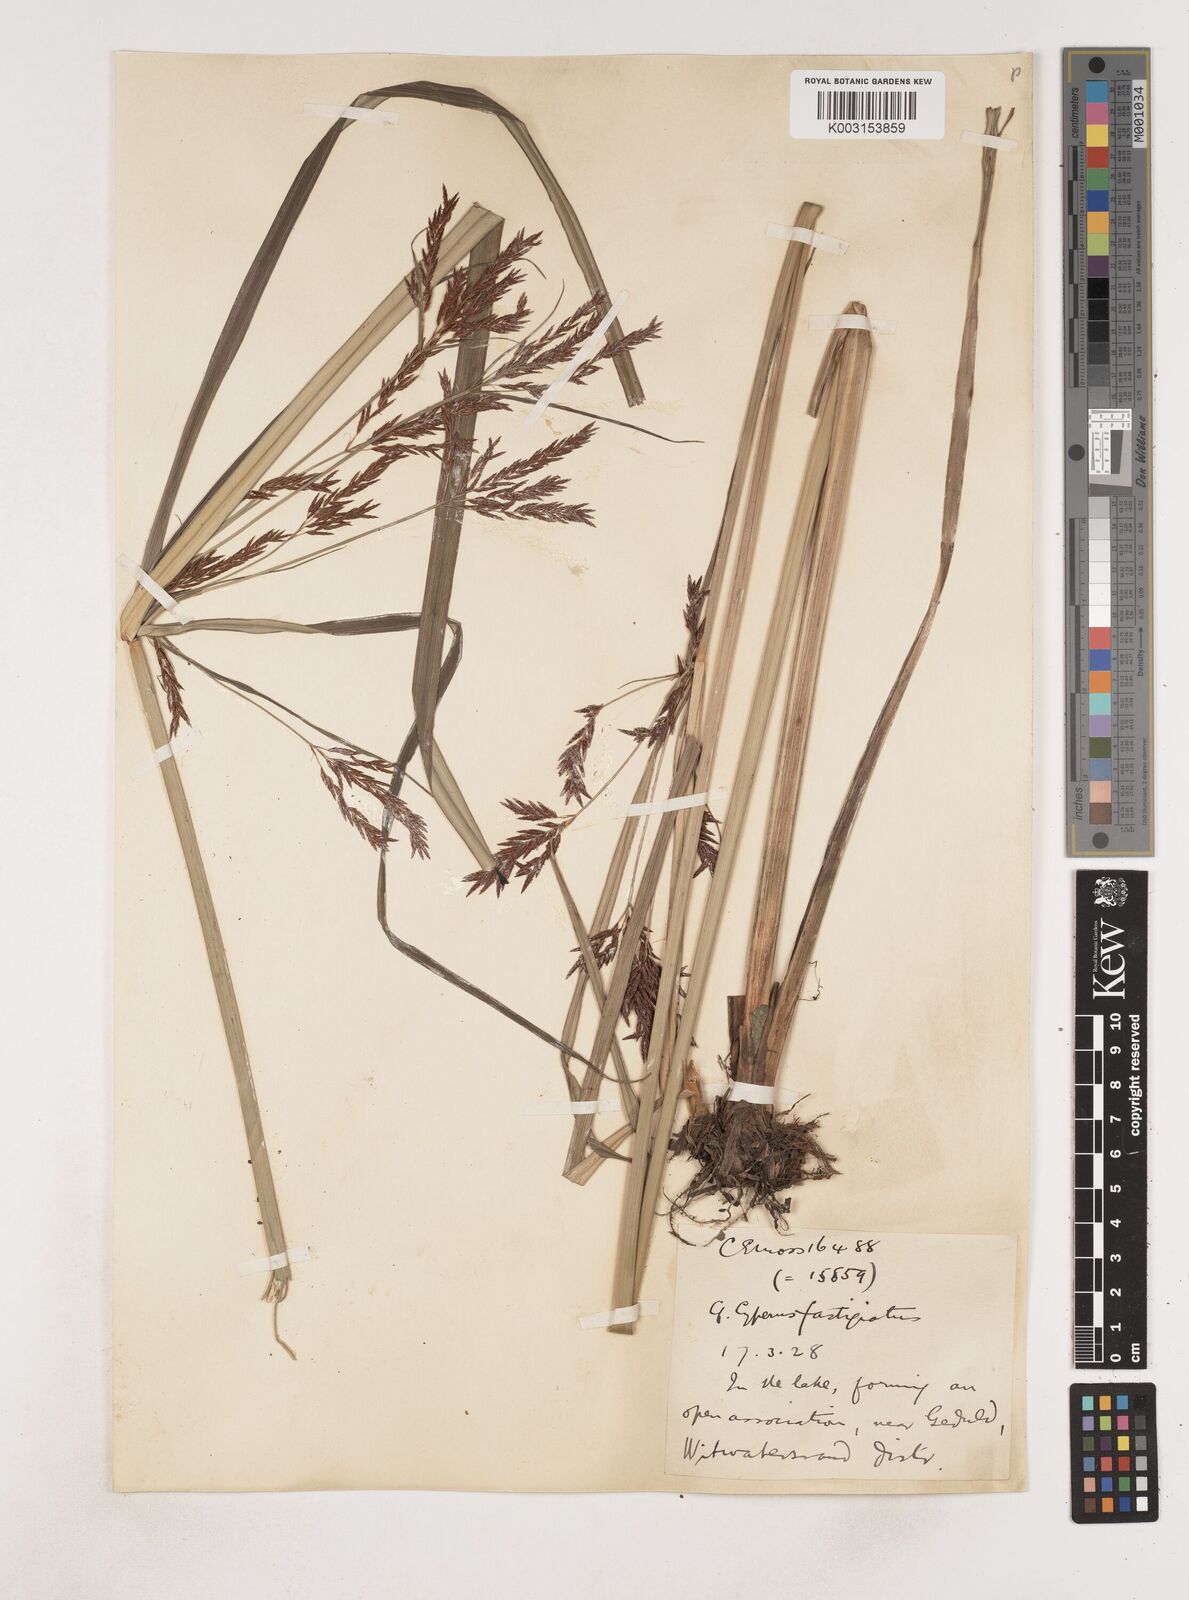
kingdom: Plantae
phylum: Tracheophyta
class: Liliopsida
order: Poales
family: Cyperaceae
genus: Cyperus
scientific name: Cyperus
